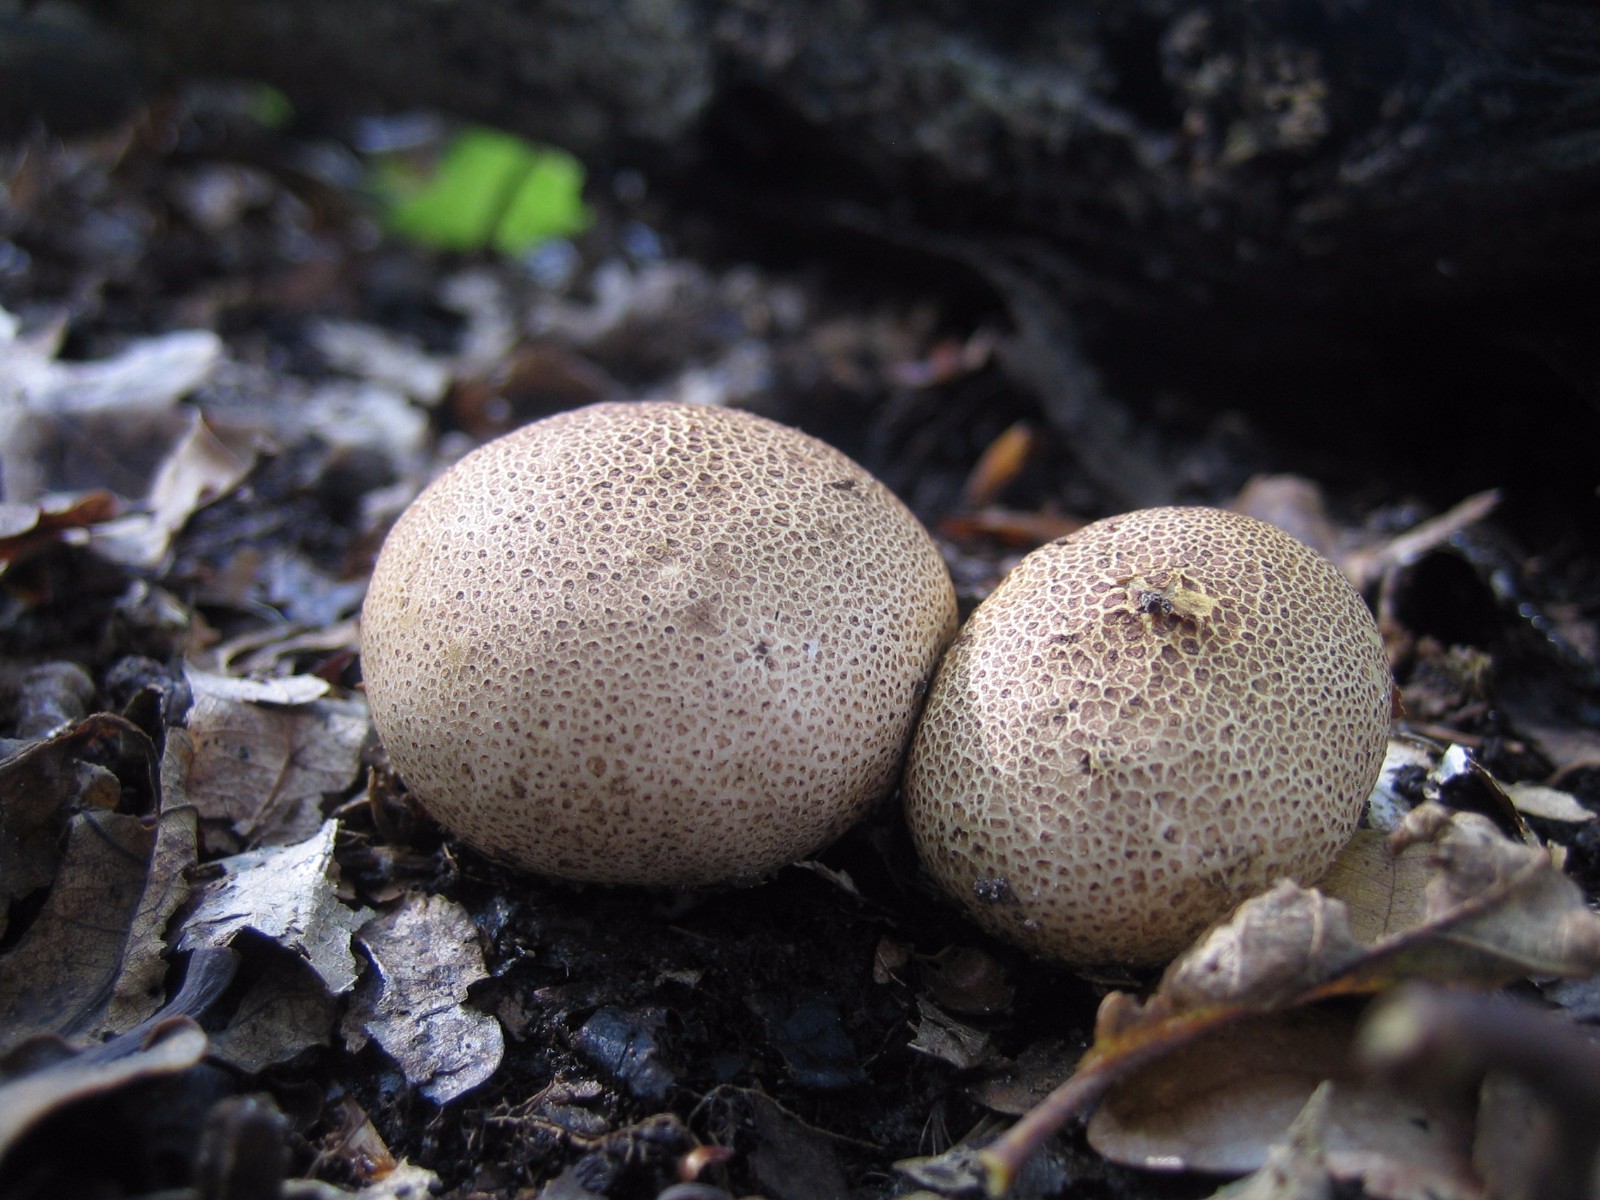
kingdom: Fungi
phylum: Basidiomycota
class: Agaricomycetes
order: Boletales
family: Sclerodermataceae
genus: Scleroderma
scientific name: Scleroderma citrinum
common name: almindelig bruskbold
